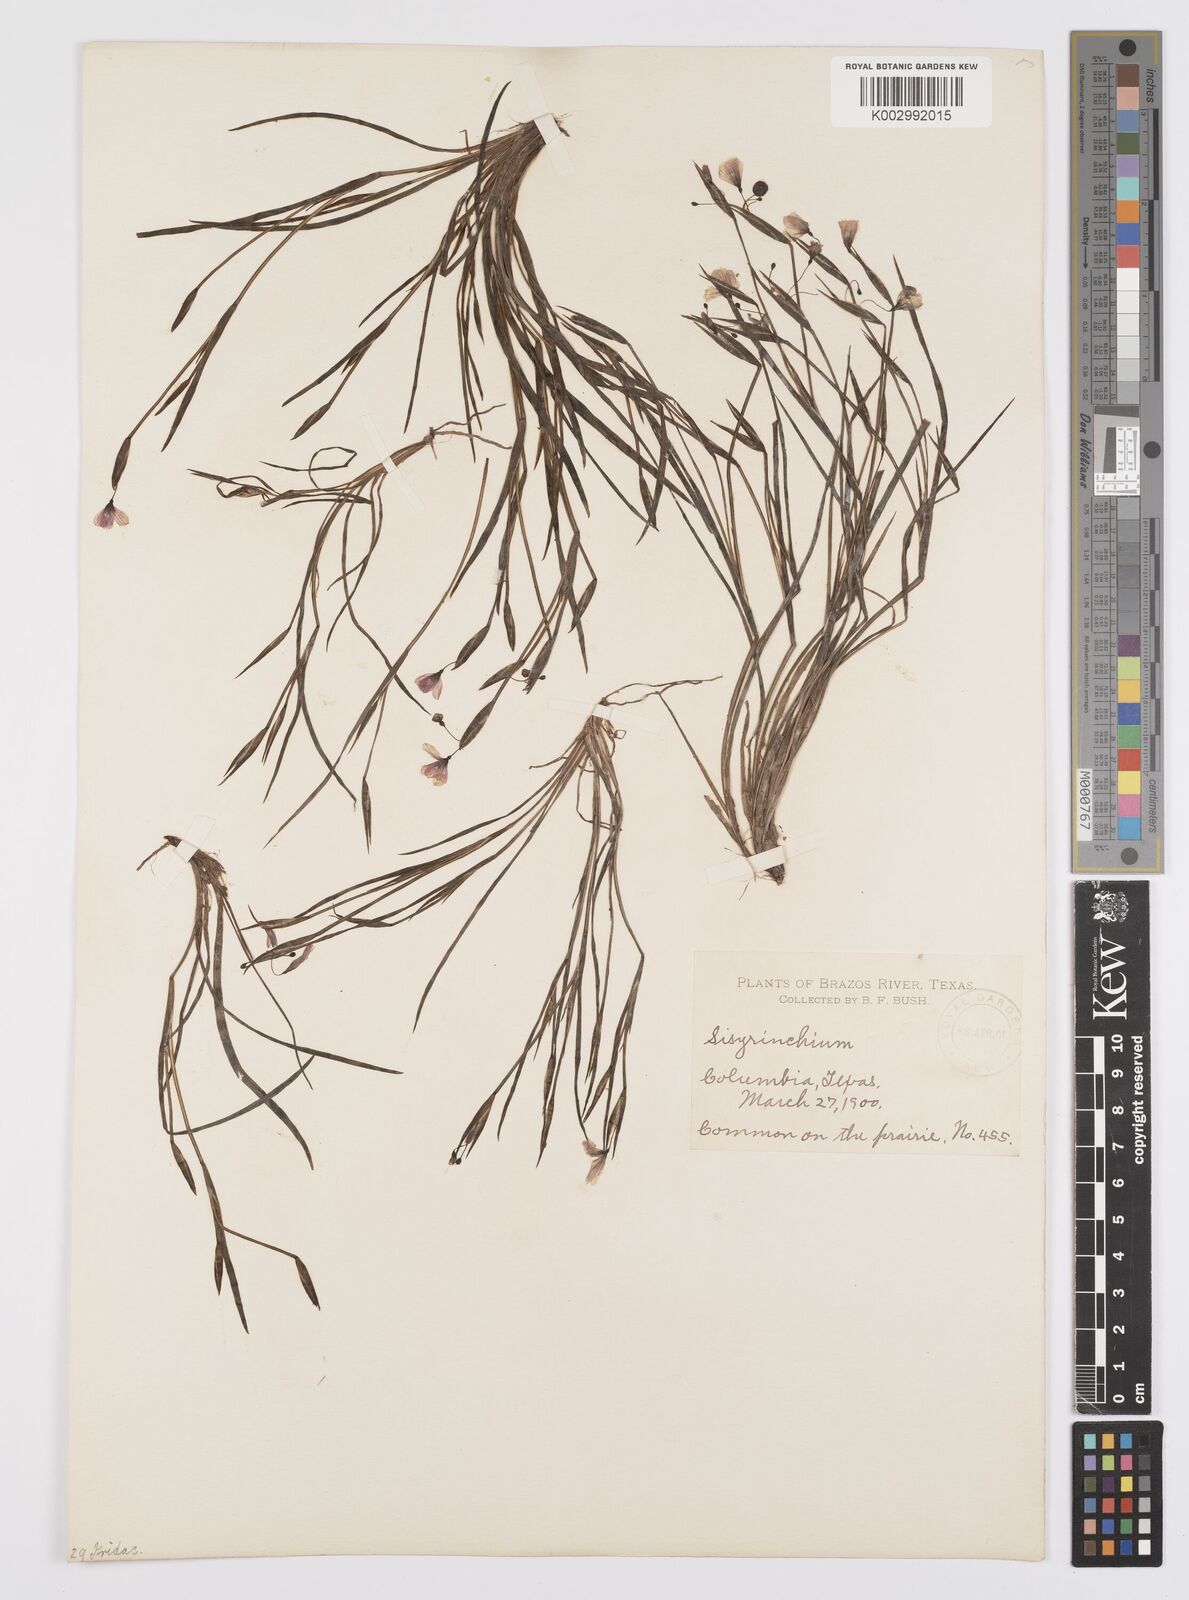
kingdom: Plantae
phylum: Tracheophyta
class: Liliopsida
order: Asparagales
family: Iridaceae
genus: Sisyrinchium
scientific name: Sisyrinchium
